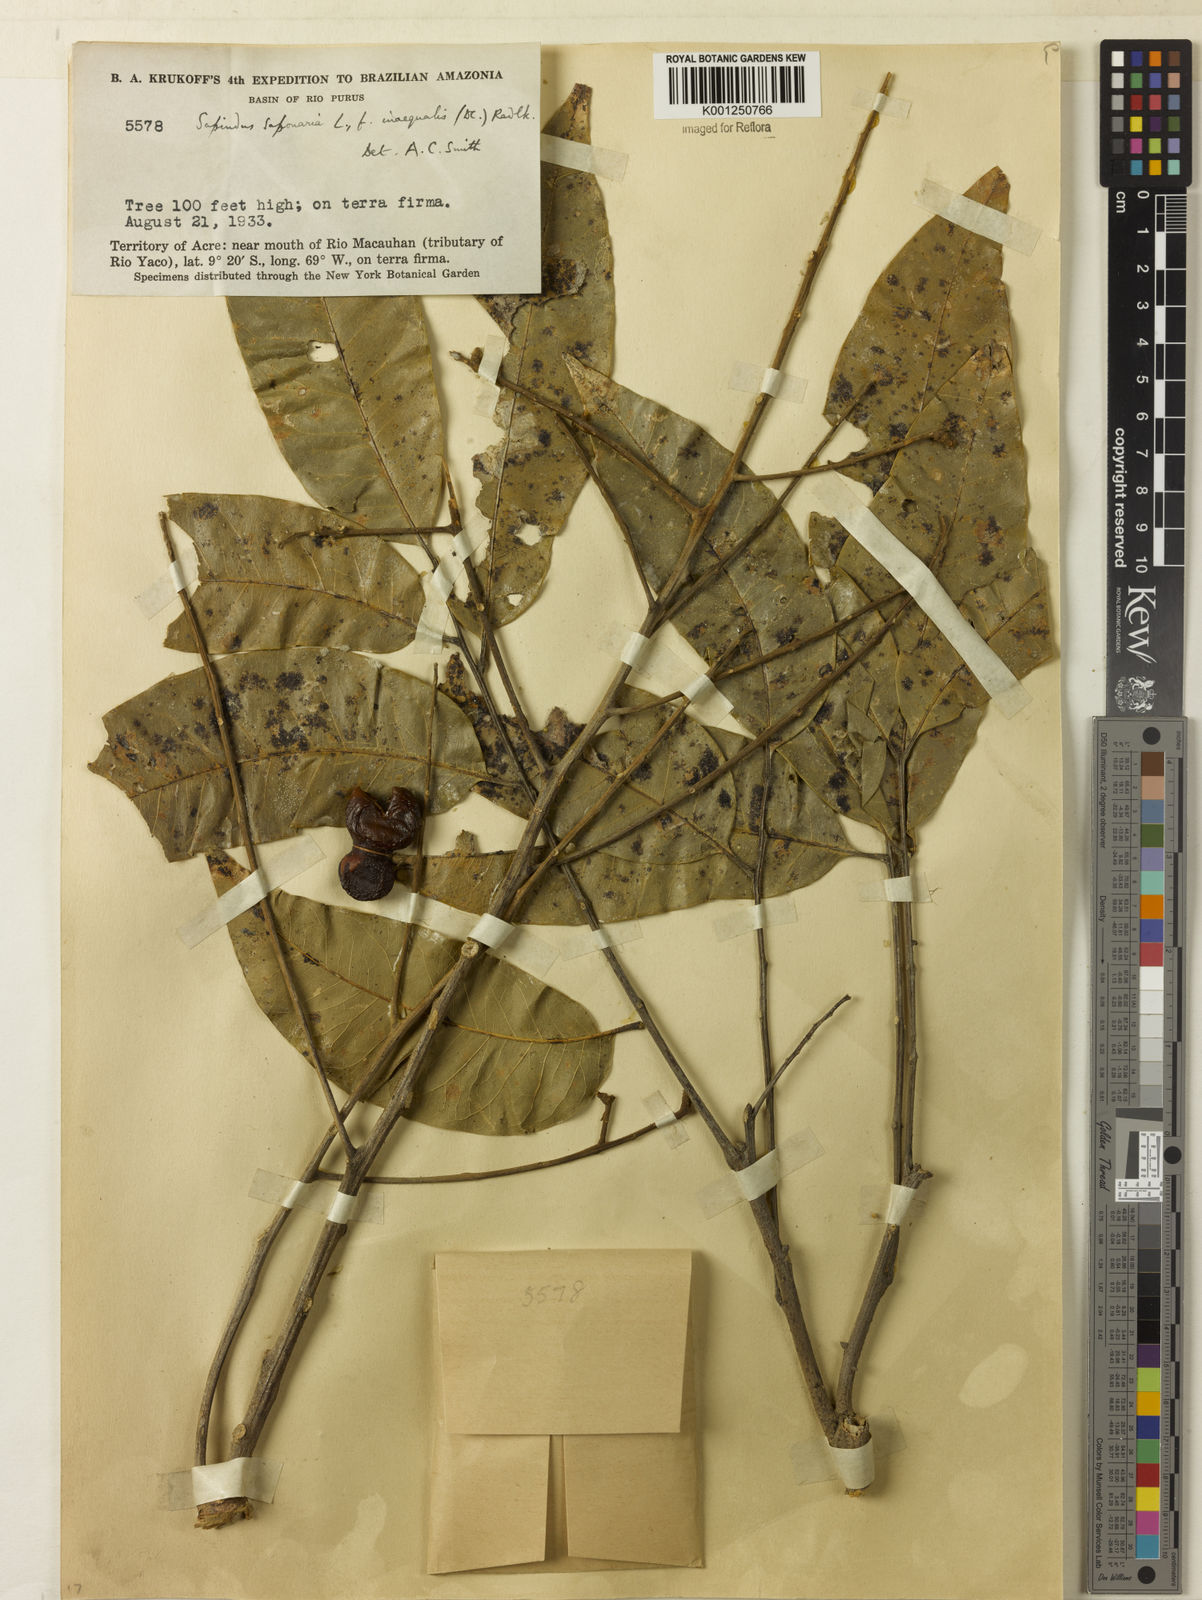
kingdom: Plantae
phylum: Tracheophyta
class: Magnoliopsida
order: Sapindales
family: Sapindaceae
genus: Sapindus
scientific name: Sapindus
